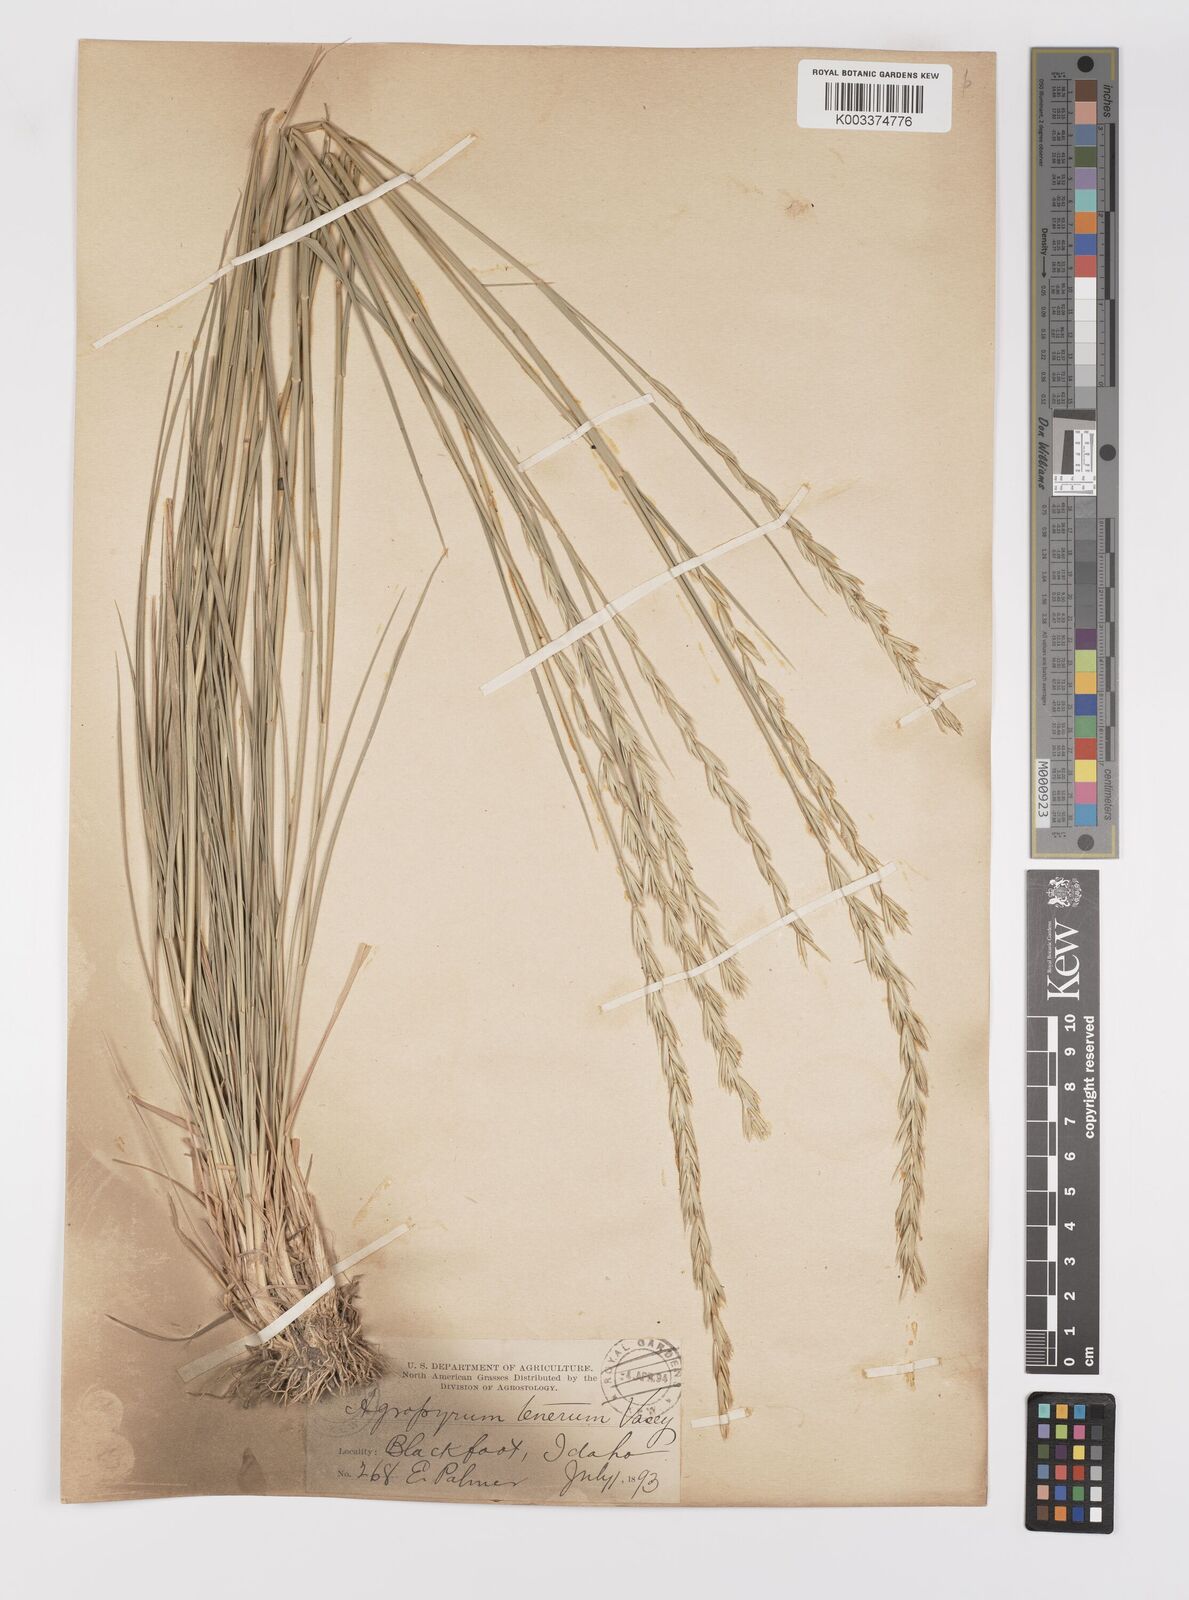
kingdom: Plantae
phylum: Tracheophyta
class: Liliopsida
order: Poales
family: Poaceae
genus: Elymus
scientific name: Elymus violaceus
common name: Arctic wheatgrass
